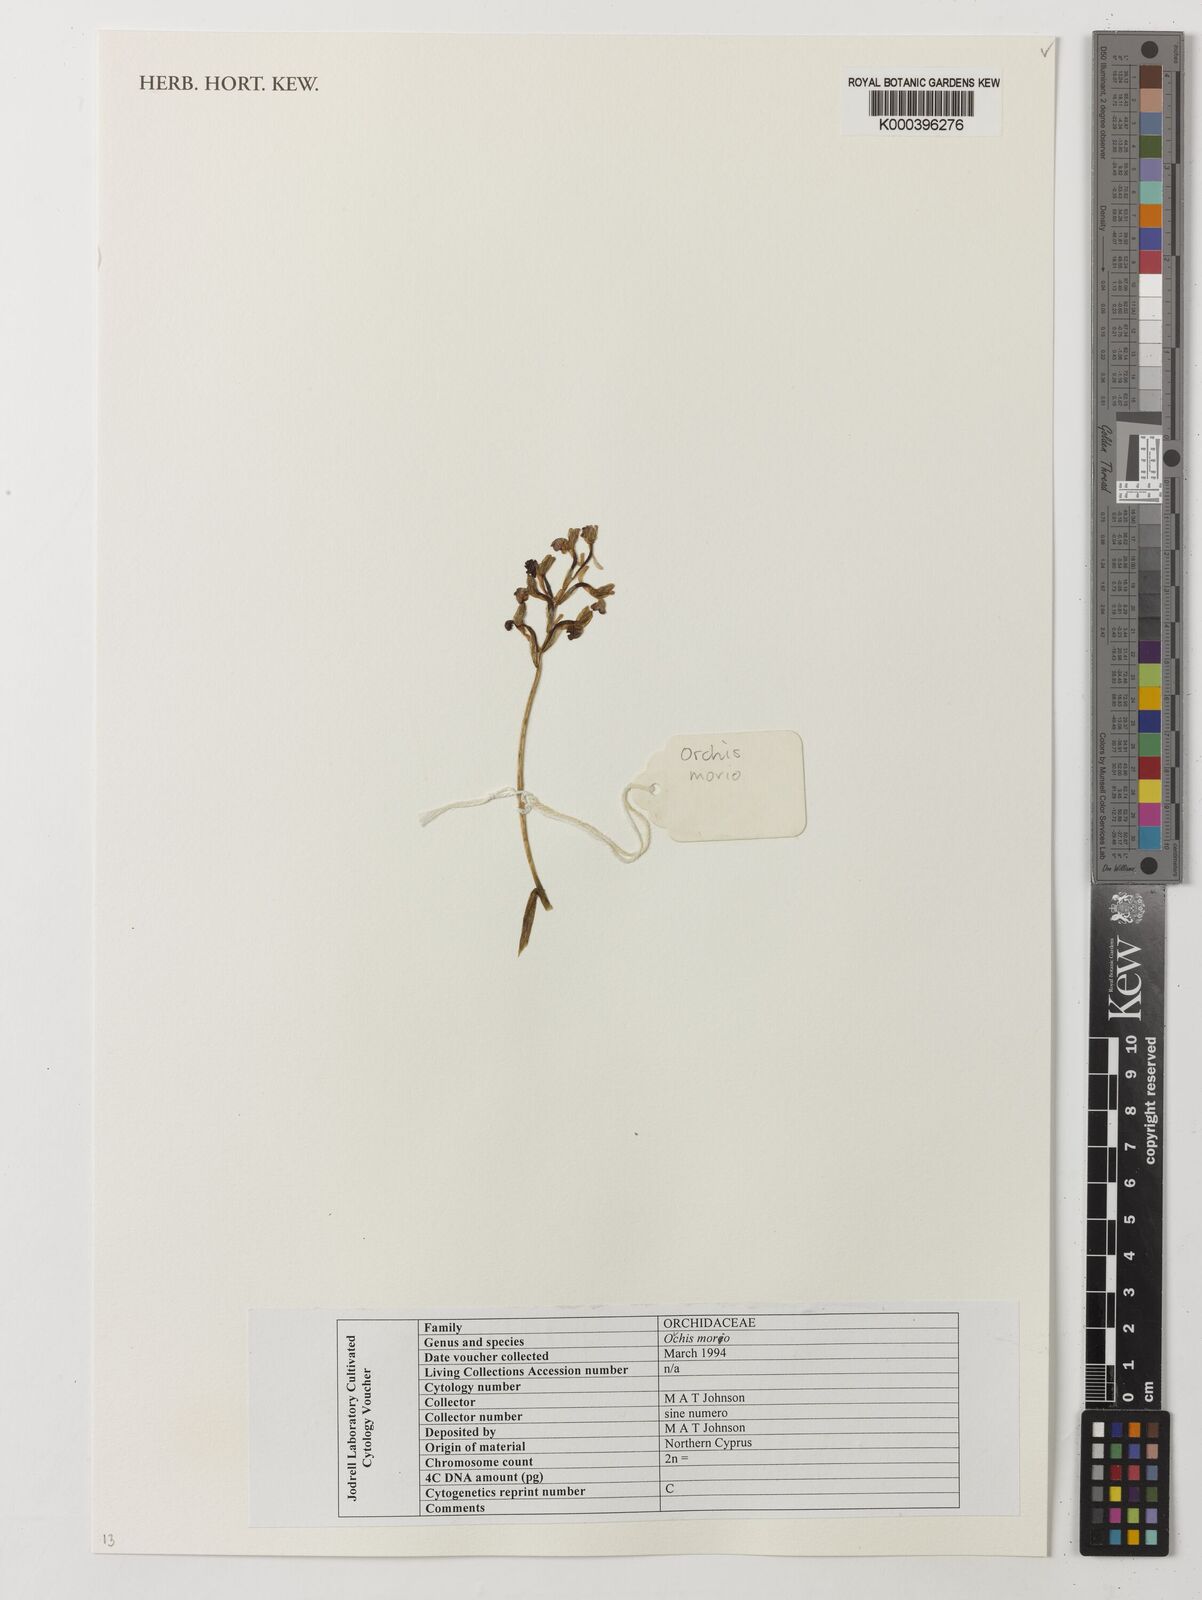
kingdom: Plantae
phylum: Tracheophyta
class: Liliopsida
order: Asparagales
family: Orchidaceae
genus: Anacamptis
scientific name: Anacamptis morio
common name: Green-winged orchid
